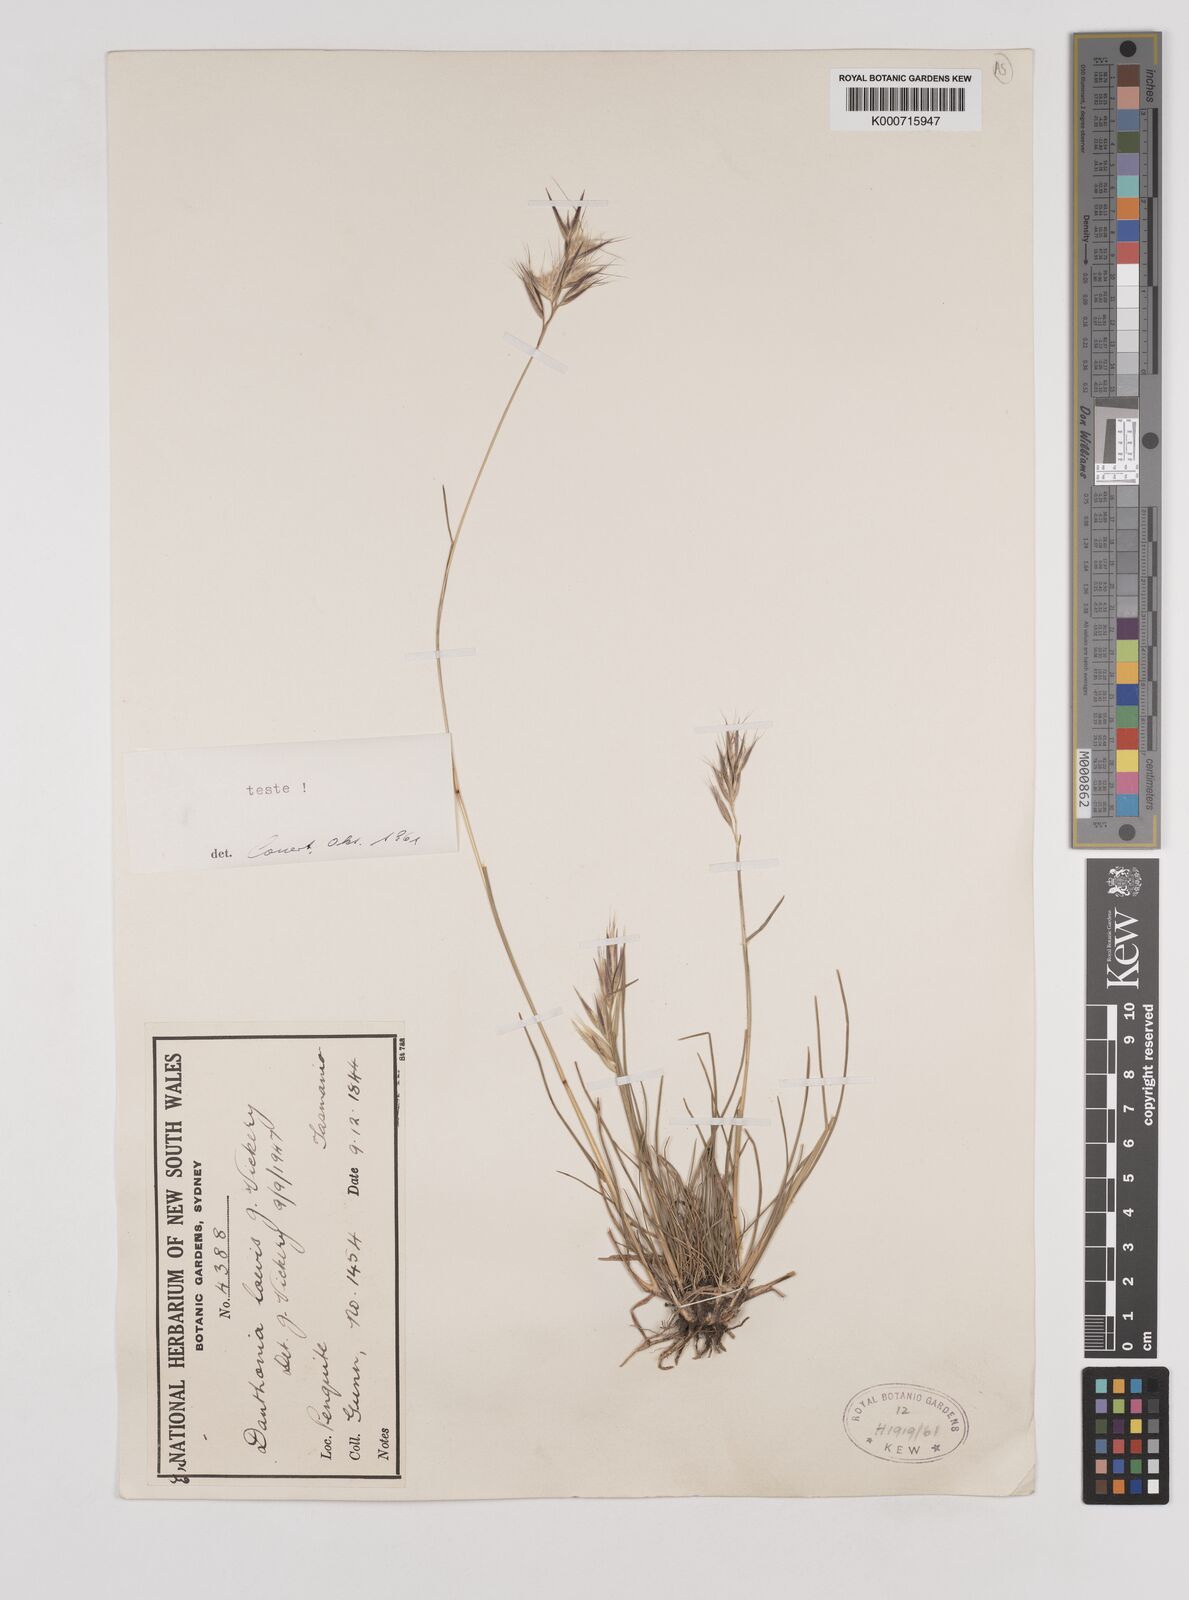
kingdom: Plantae
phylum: Tracheophyta
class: Liliopsida
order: Poales
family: Poaceae
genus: Rytidosperma
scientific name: Rytidosperma laeve
